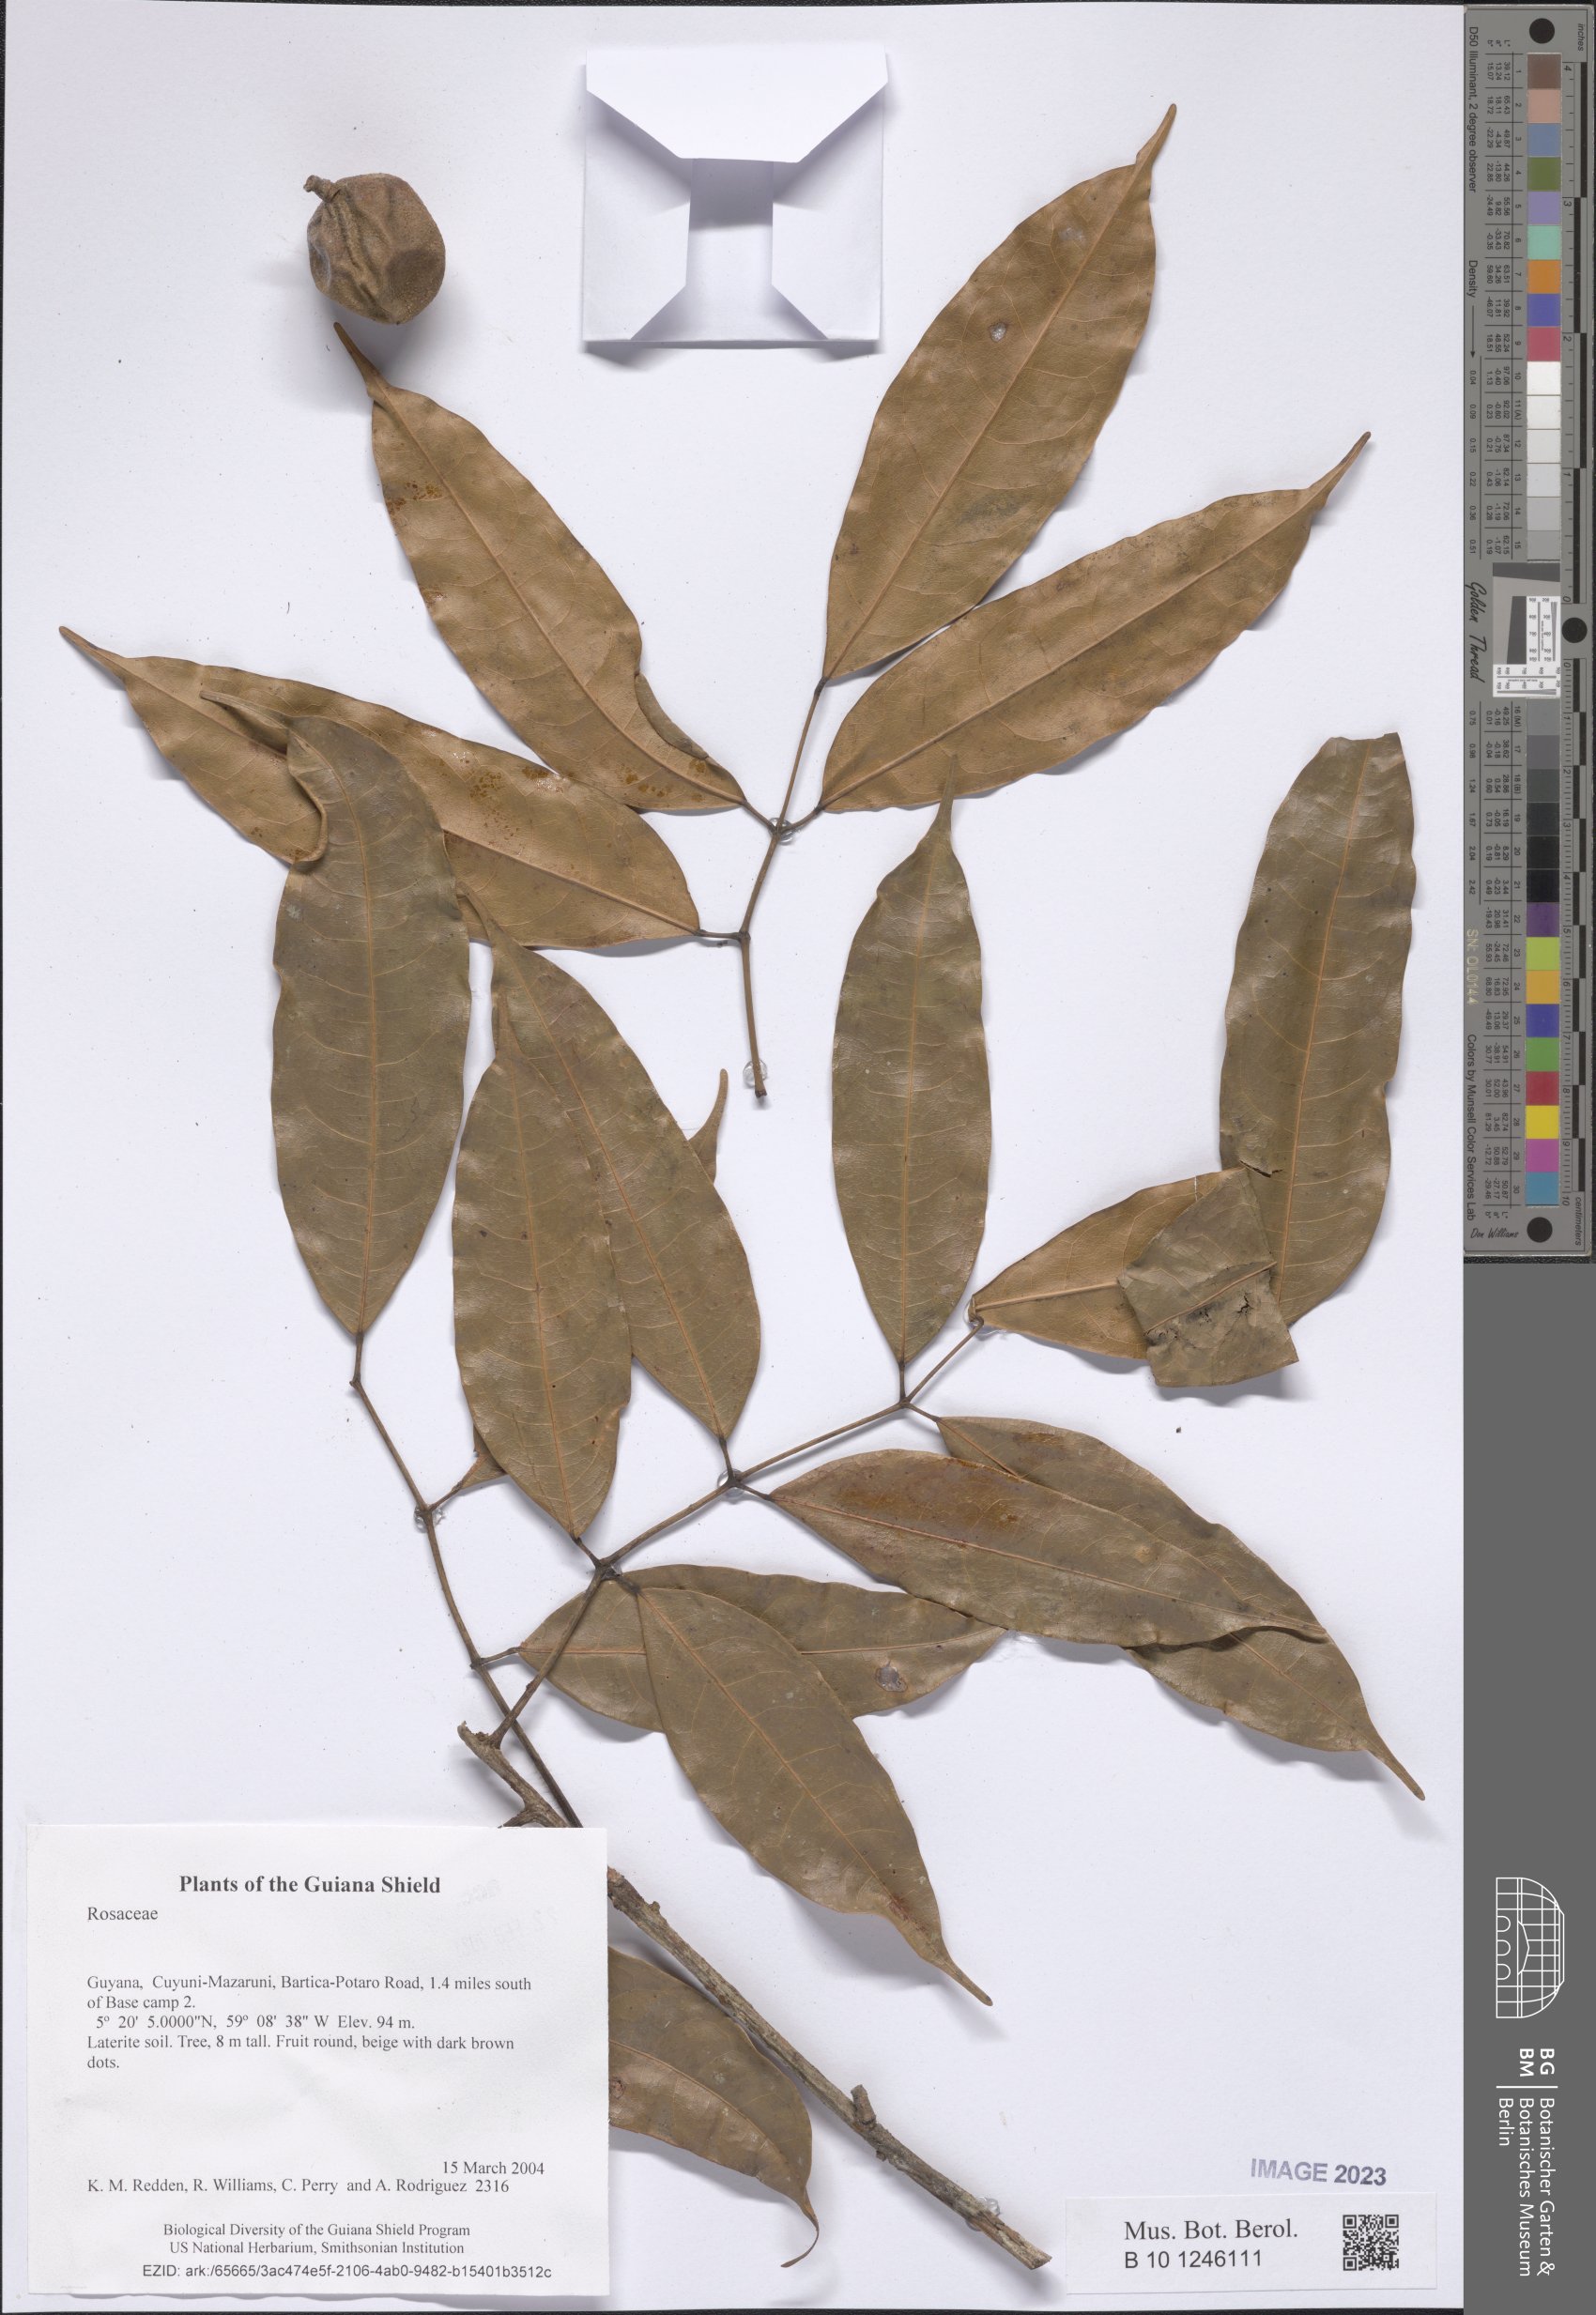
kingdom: Plantae
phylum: Tracheophyta
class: Magnoliopsida
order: Malpighiales
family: Chrysobalanaceae
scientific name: Chrysobalanaceae
